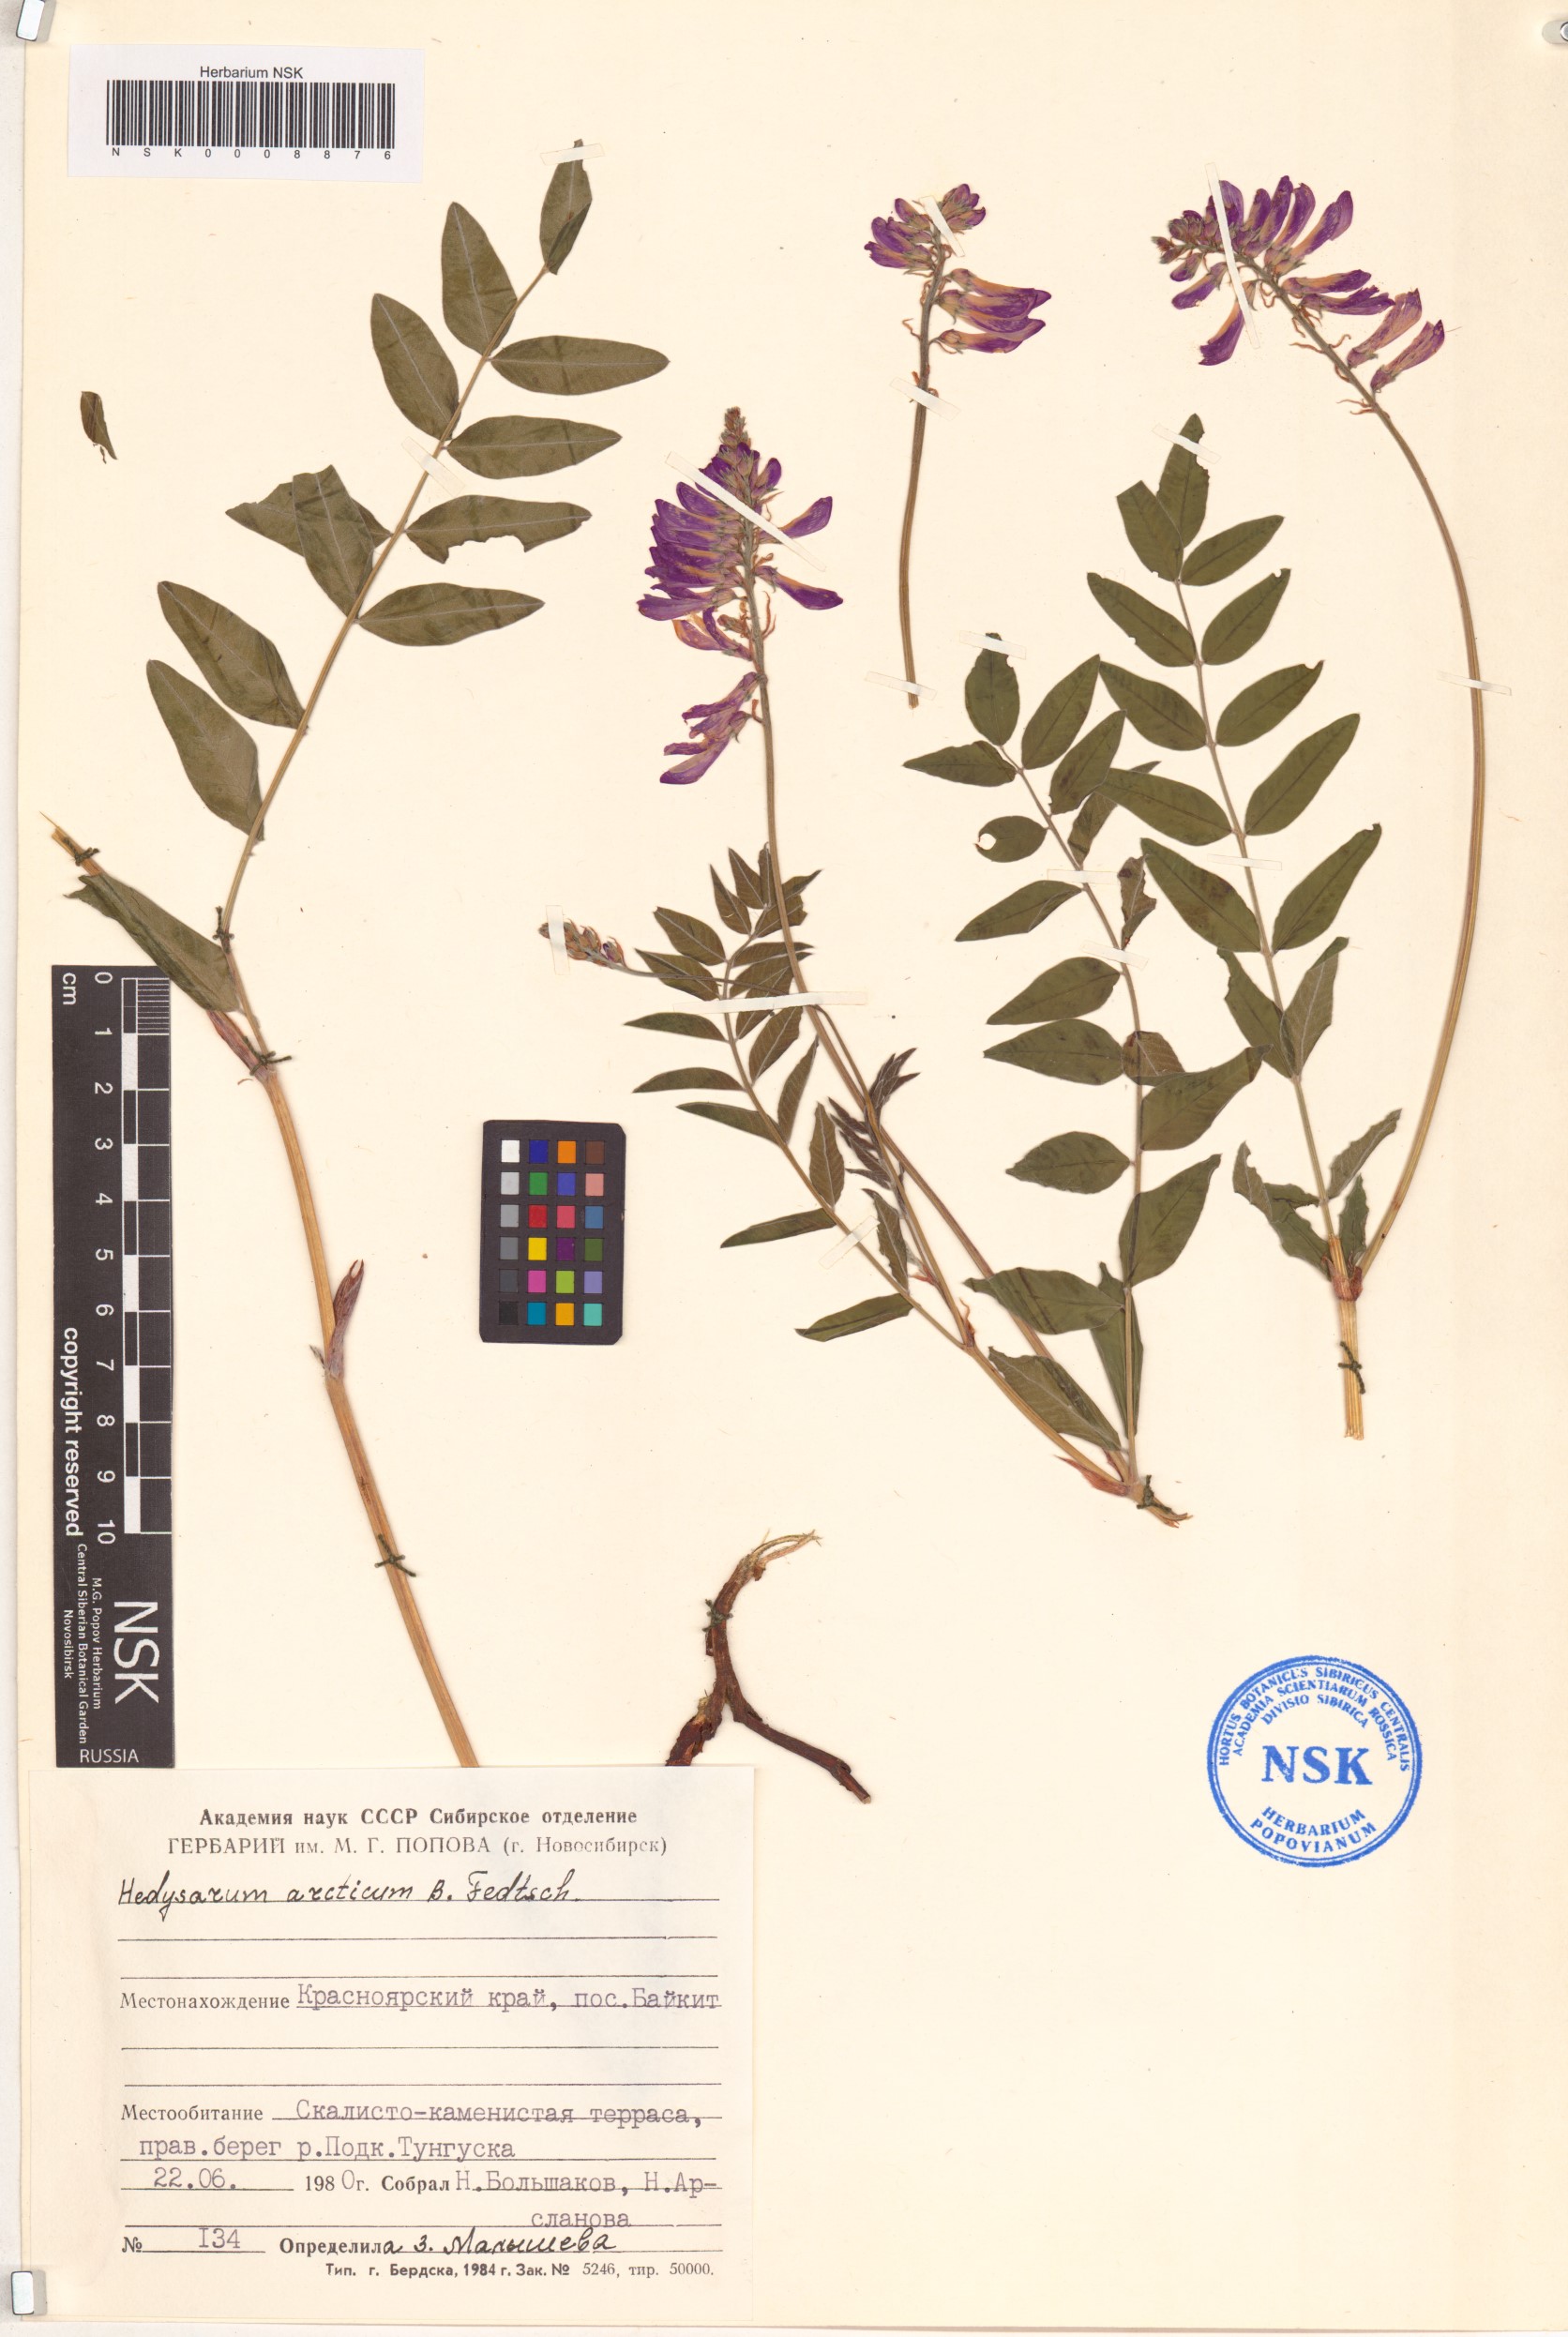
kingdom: Plantae
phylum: Tracheophyta
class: Magnoliopsida
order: Fabales
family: Fabaceae
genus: Hedysarum
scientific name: Hedysarum hedysaroides
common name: Alpine french-honeysuckle
